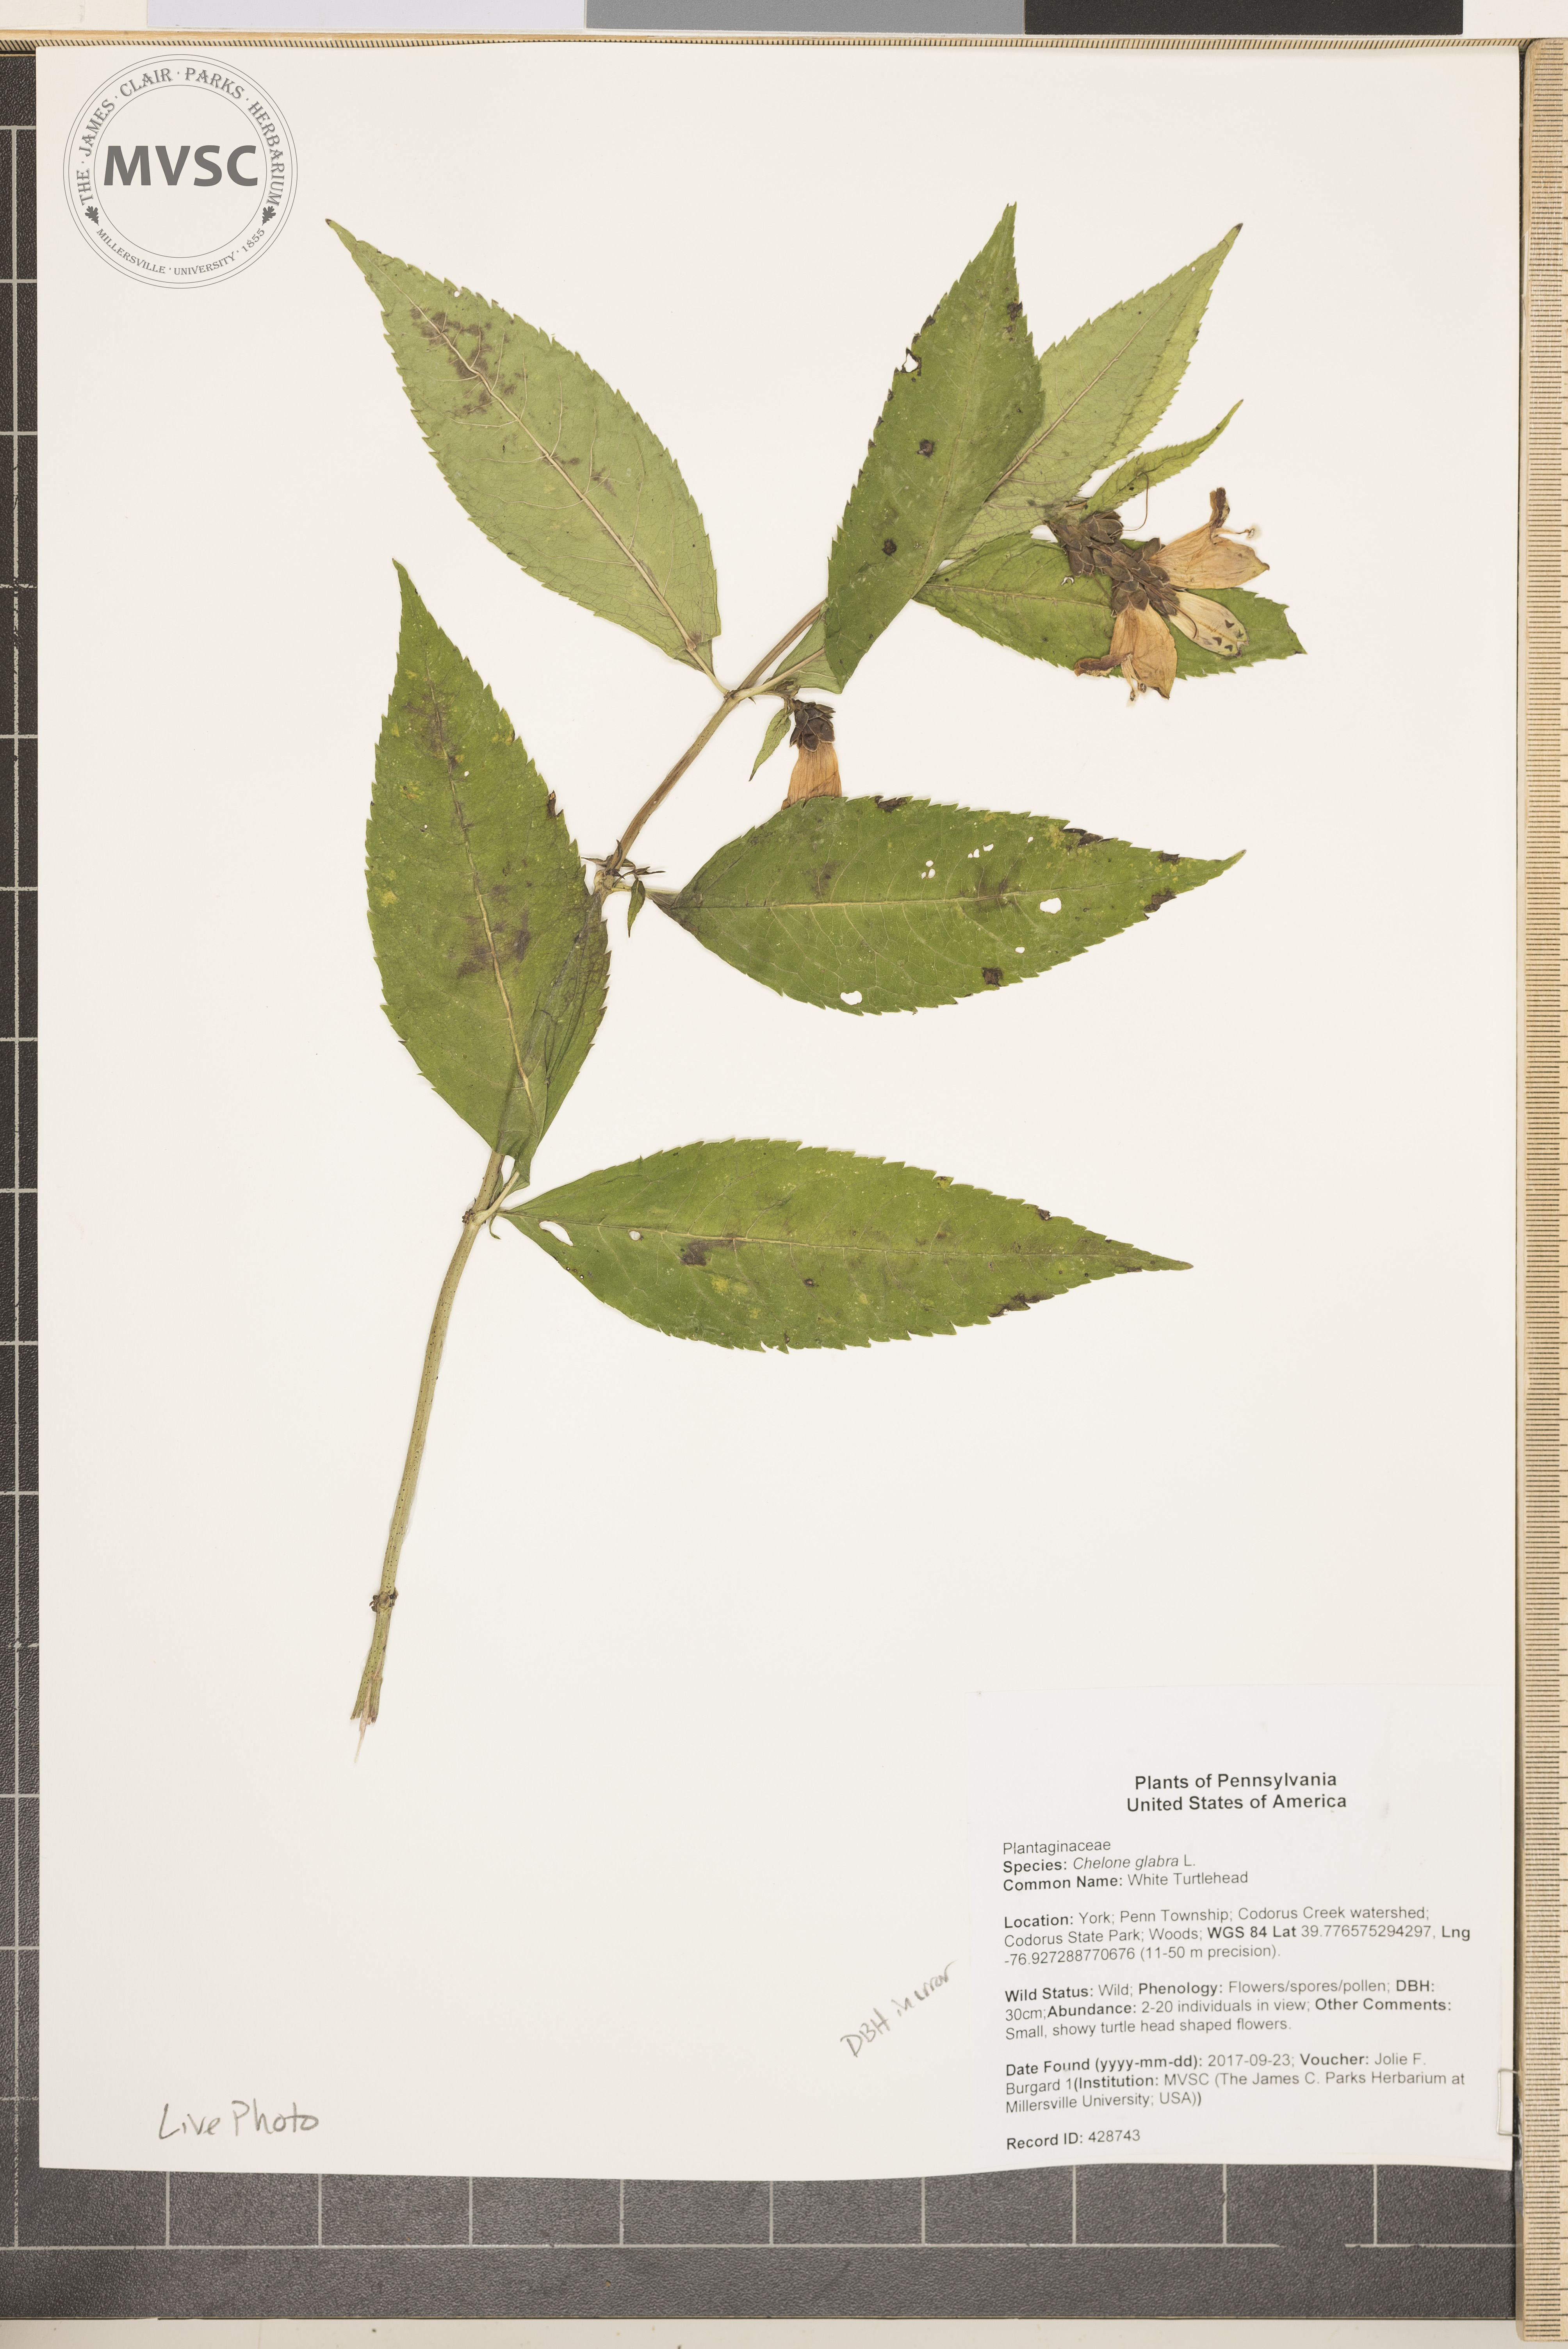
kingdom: Plantae
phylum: Tracheophyta
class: Magnoliopsida
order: Lamiales
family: Plantaginaceae
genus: Chelone
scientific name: Chelone glabra
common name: White Turtlehead
